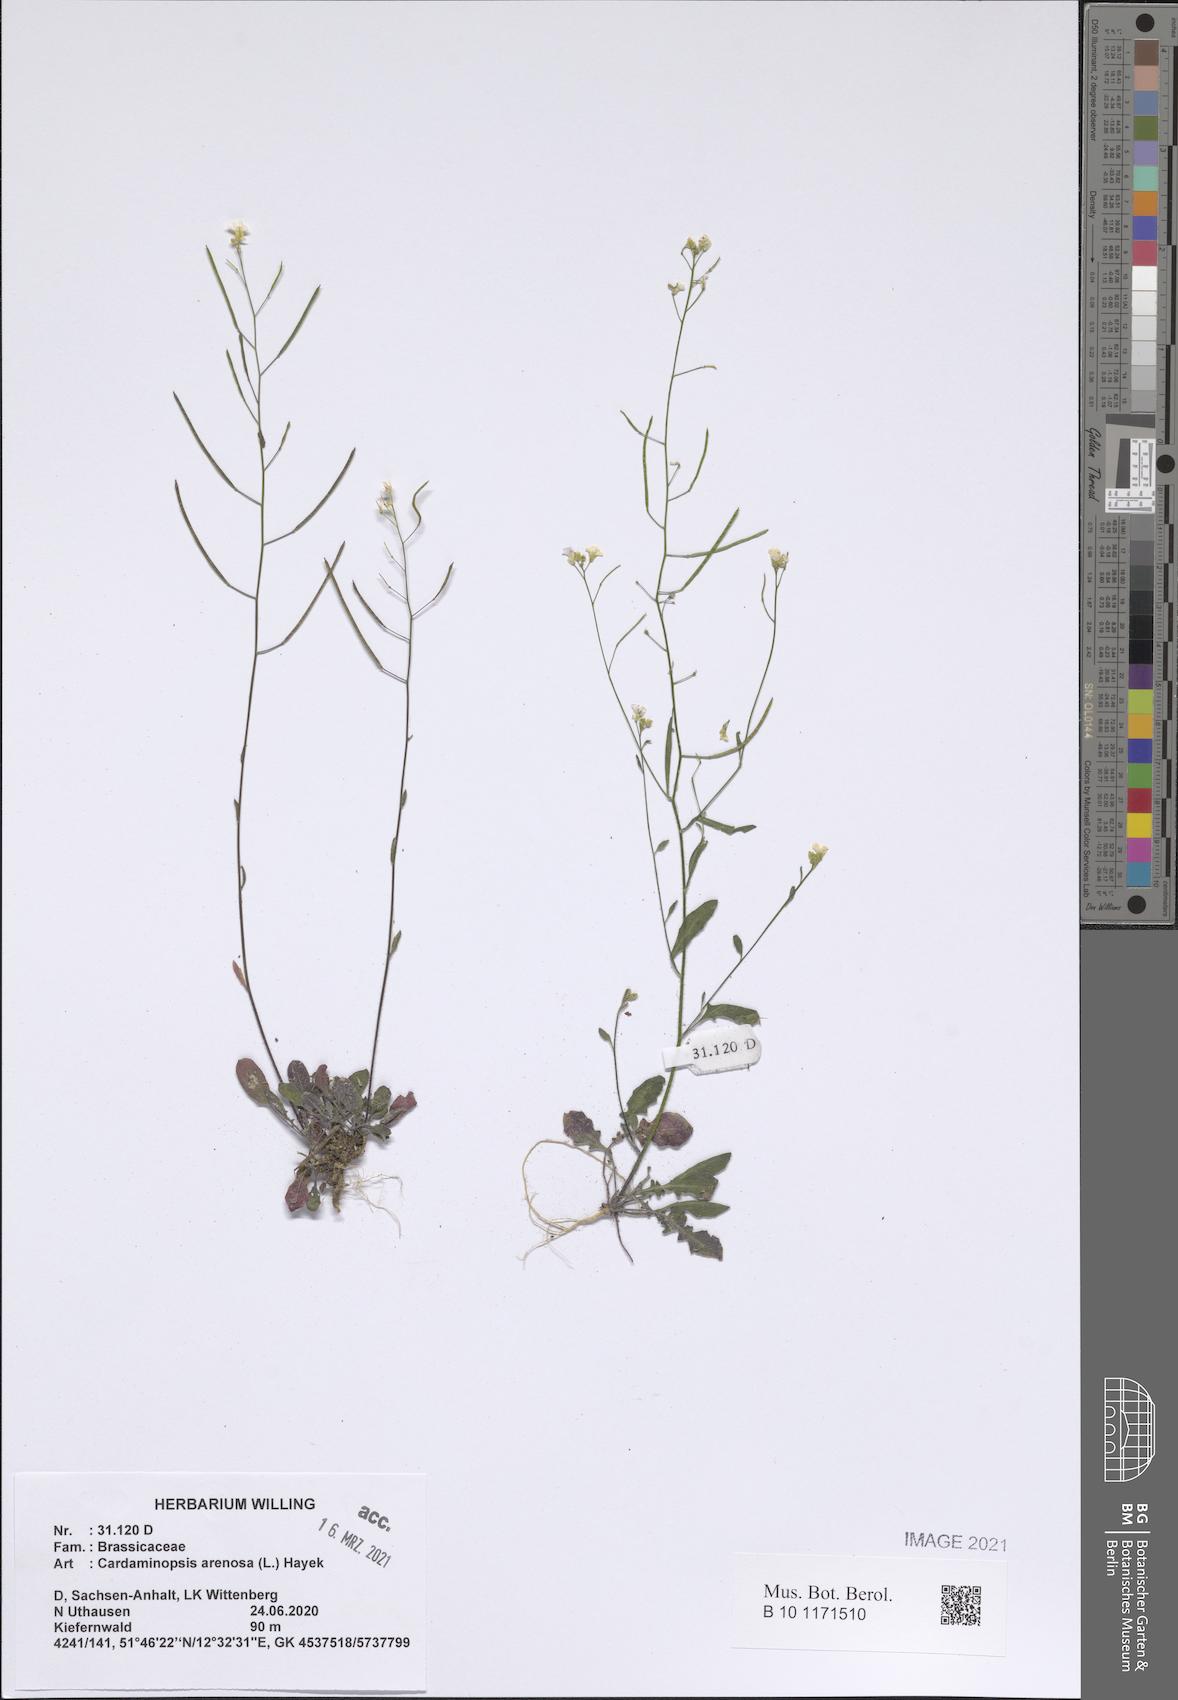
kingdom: Plantae
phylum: Tracheophyta
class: Magnoliopsida
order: Brassicales
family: Brassicaceae
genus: Arabidopsis
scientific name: Arabidopsis arenosa
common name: Sand rock-cress
